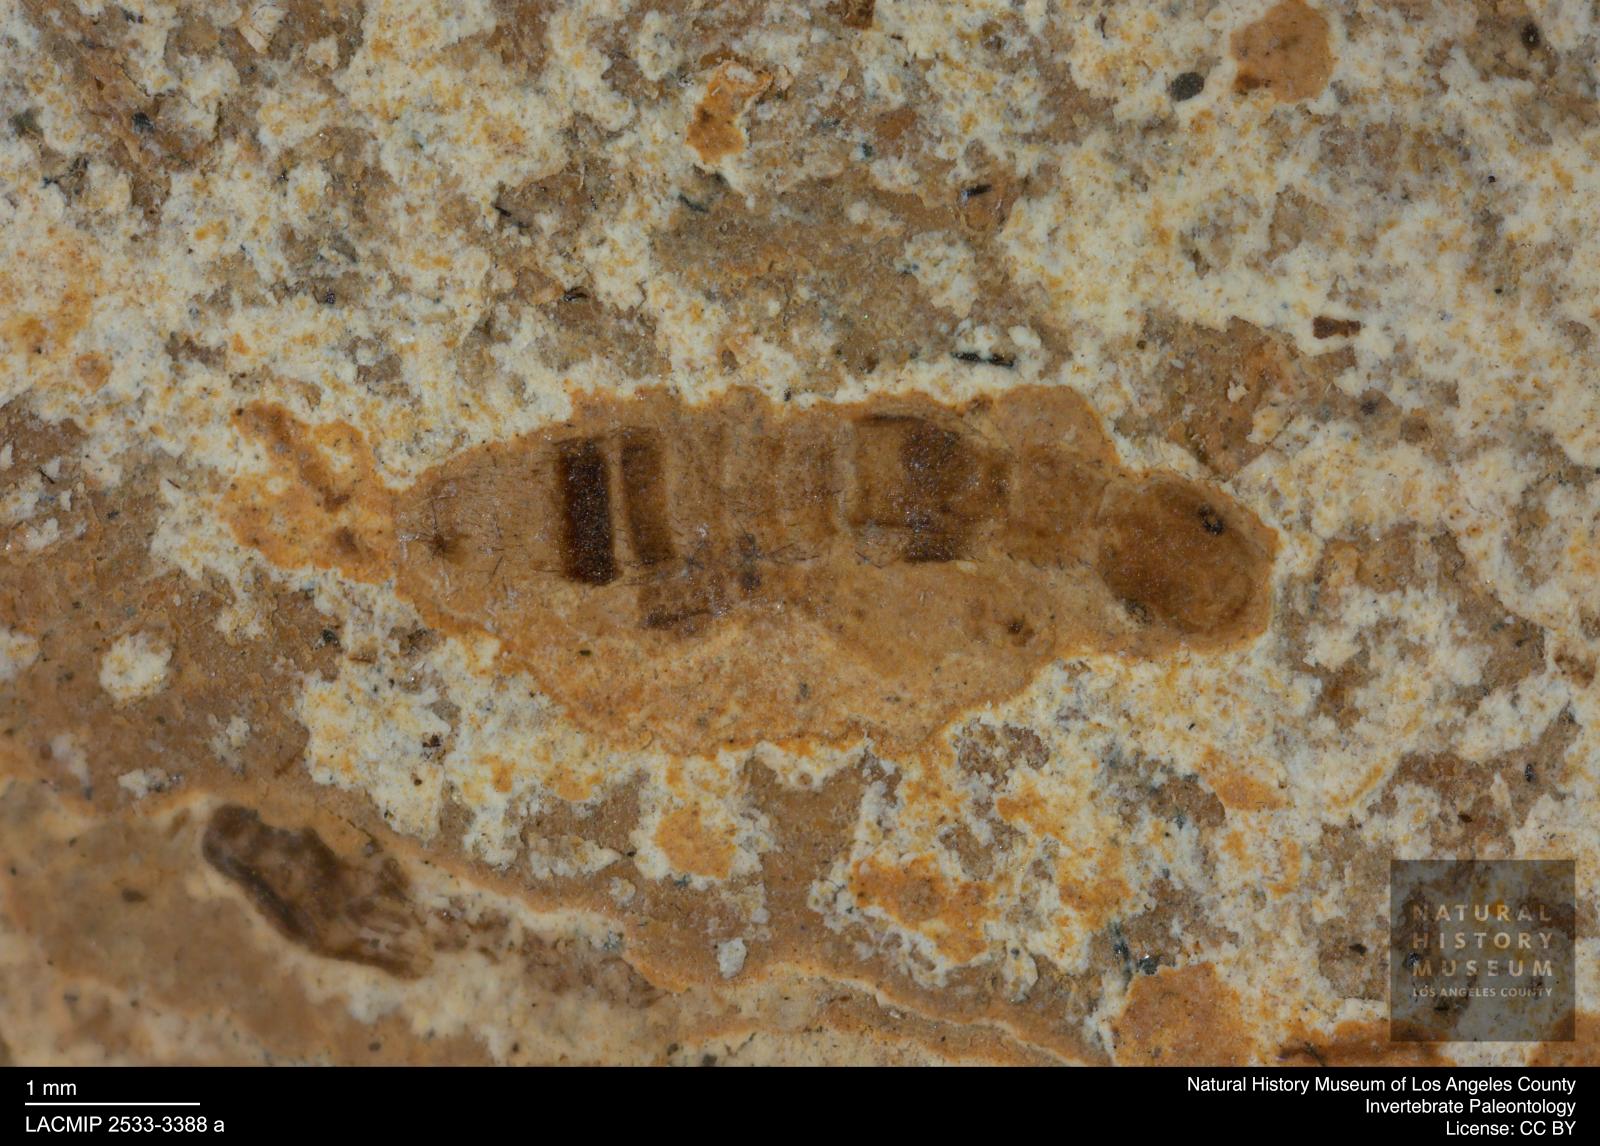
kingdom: Animalia
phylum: Arthropoda
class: Insecta
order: Coleoptera
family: Staphylinidae
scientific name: Staphylinidae
